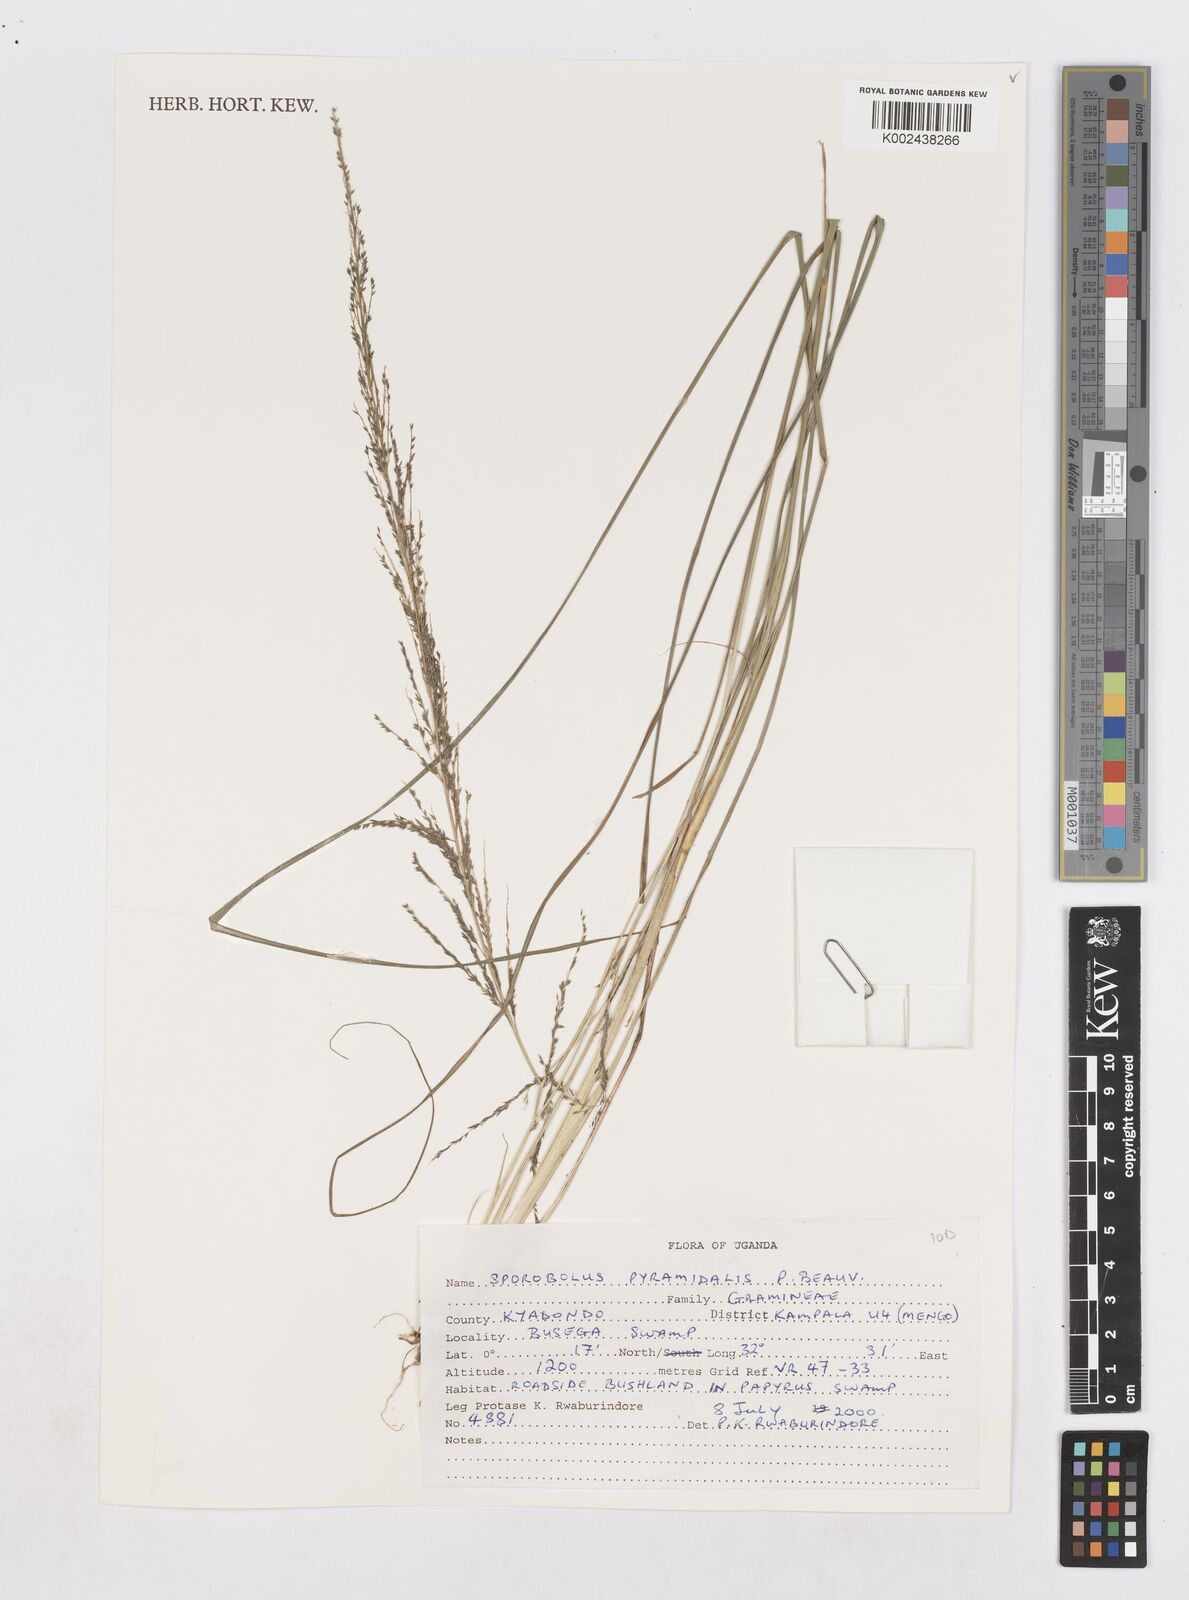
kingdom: Plantae
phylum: Tracheophyta
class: Liliopsida
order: Poales
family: Poaceae
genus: Sporobolus
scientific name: Sporobolus pyramidalis
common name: West indian dropseed
